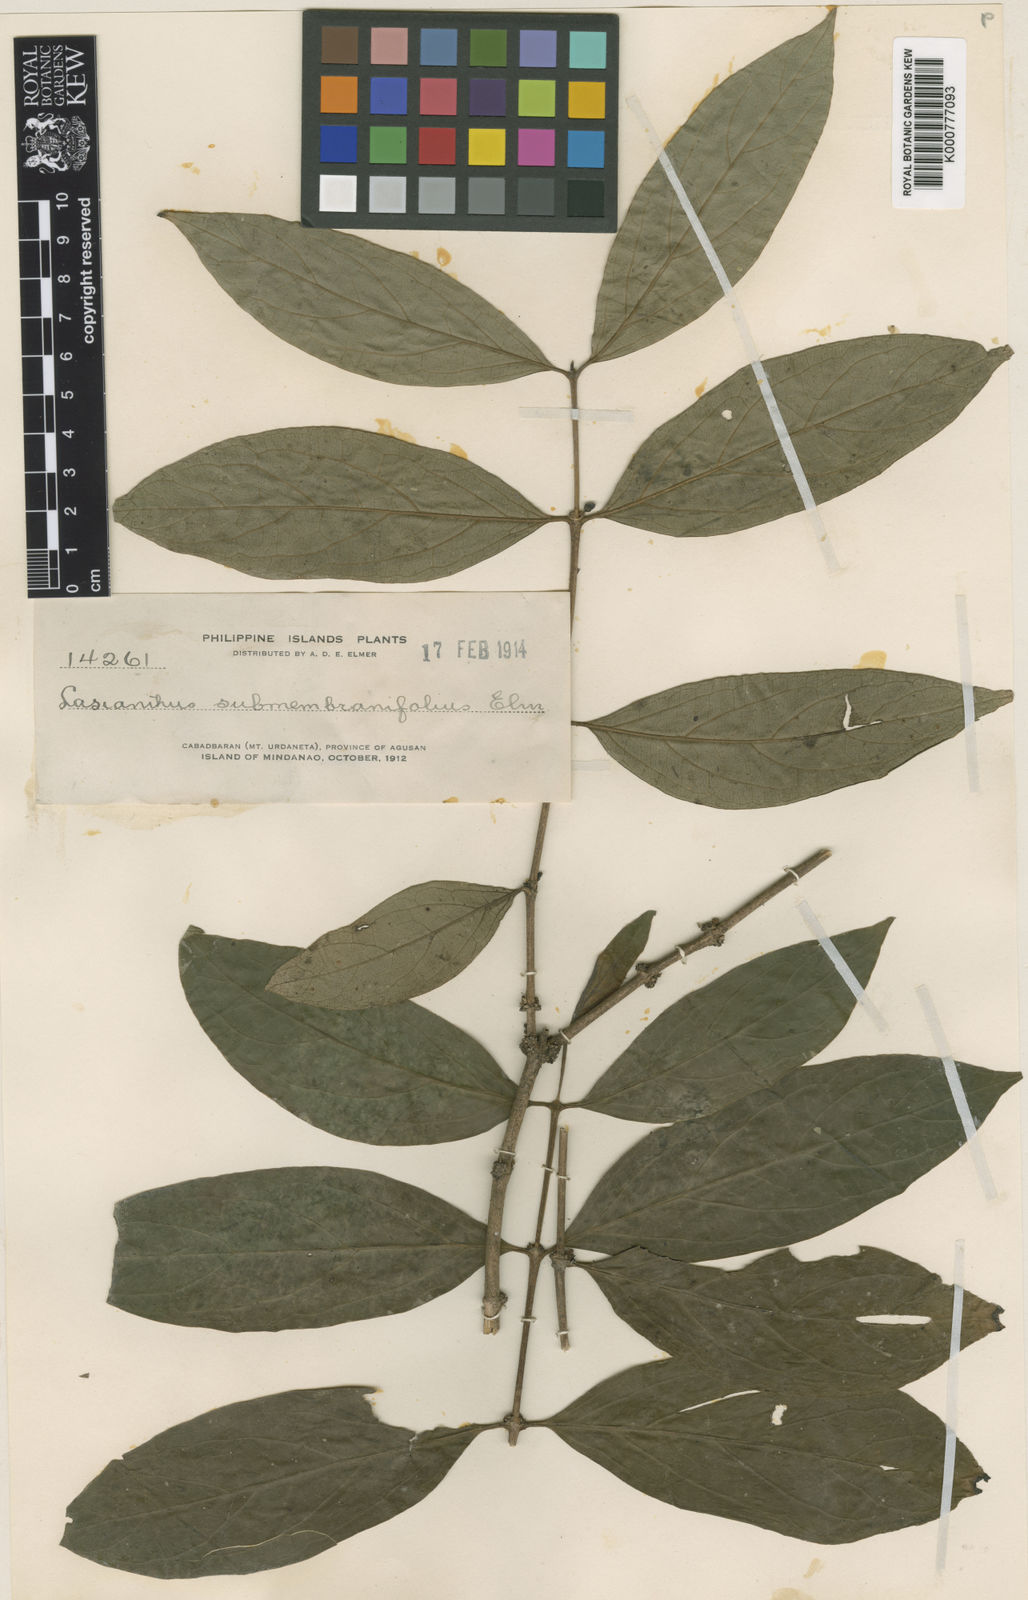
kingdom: Plantae
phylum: Tracheophyta
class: Magnoliopsida
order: Gentianales
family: Rubiaceae
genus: Lasianthus
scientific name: Lasianthus submembranifolius
